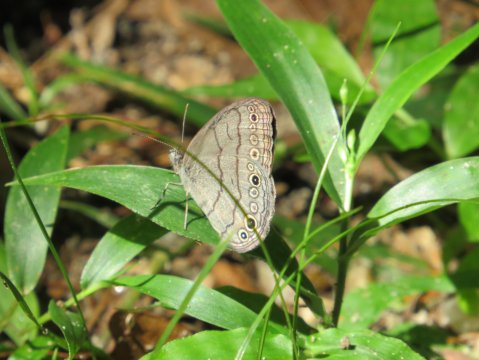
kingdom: Animalia
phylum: Arthropoda
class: Insecta
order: Lepidoptera
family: Nymphalidae
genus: Hermeuptychia
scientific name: Hermeuptychia
